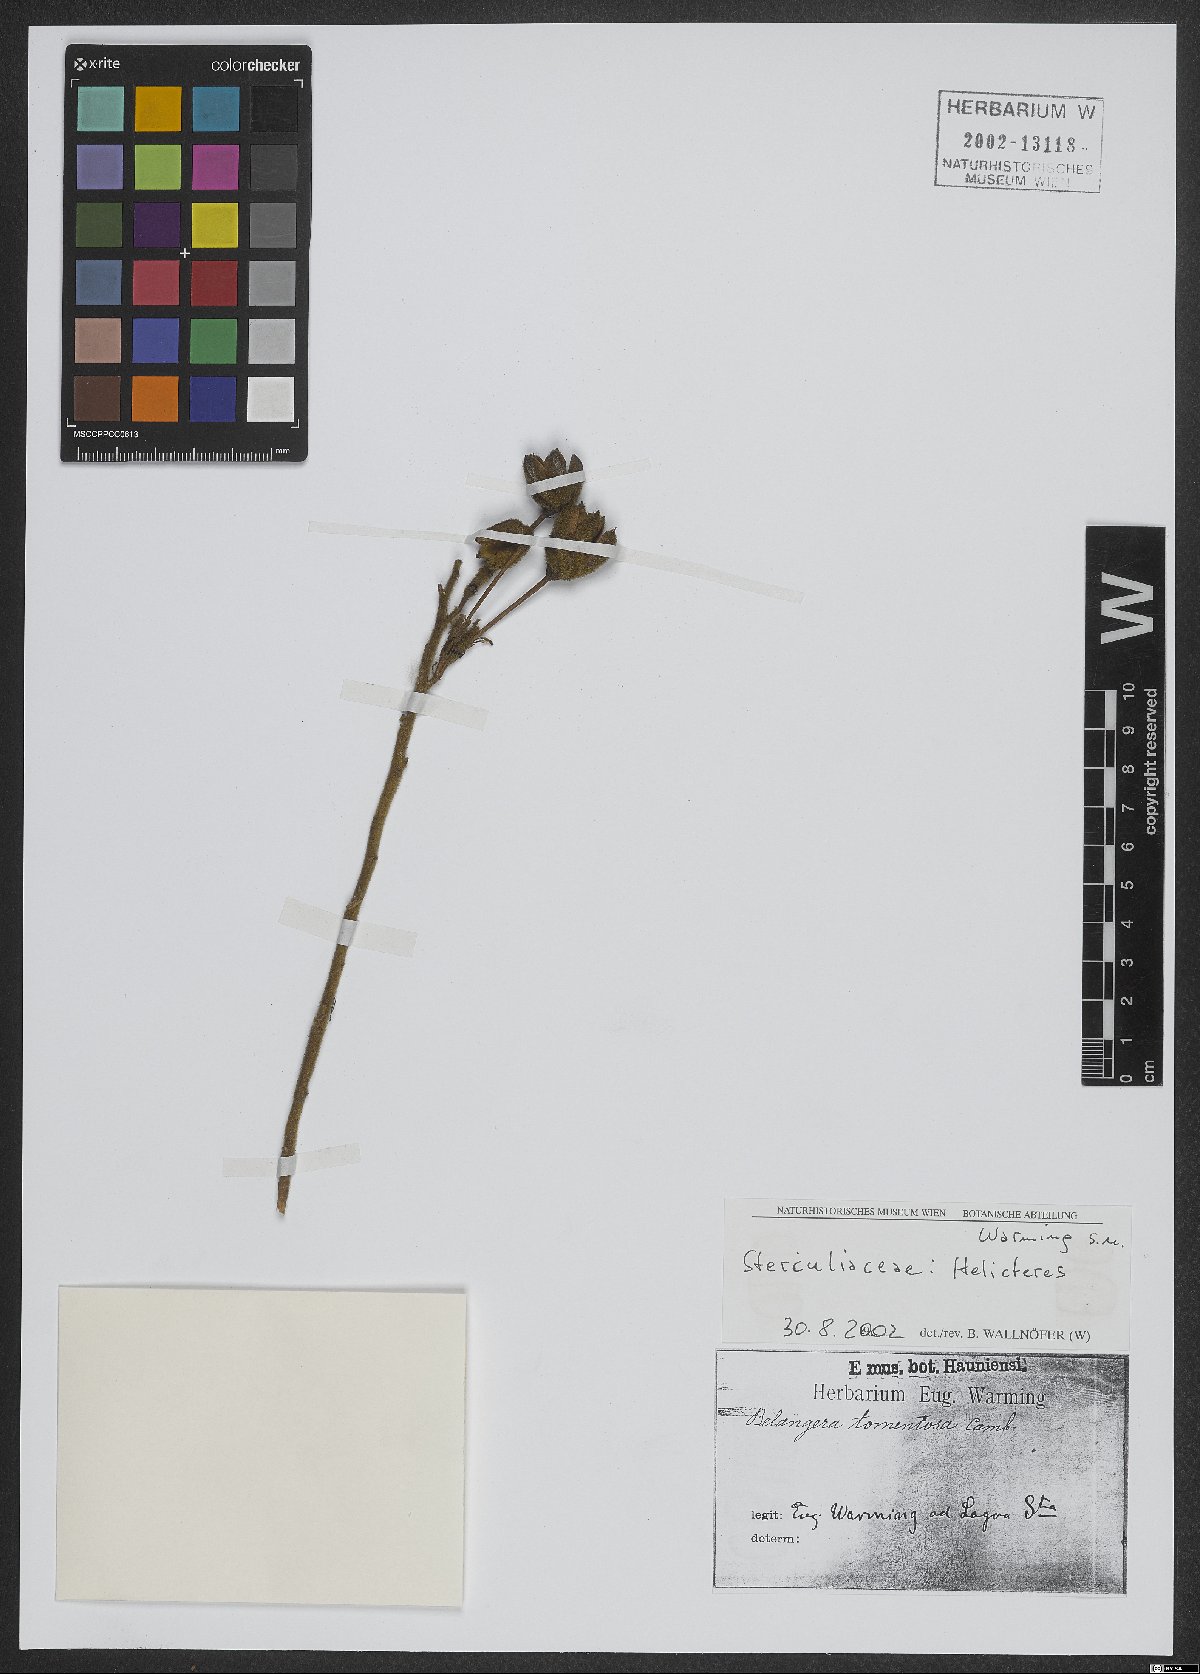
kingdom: Plantae
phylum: Tracheophyta
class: Magnoliopsida
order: Malvales
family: Malvaceae
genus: Helicteres
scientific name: Helicteres
